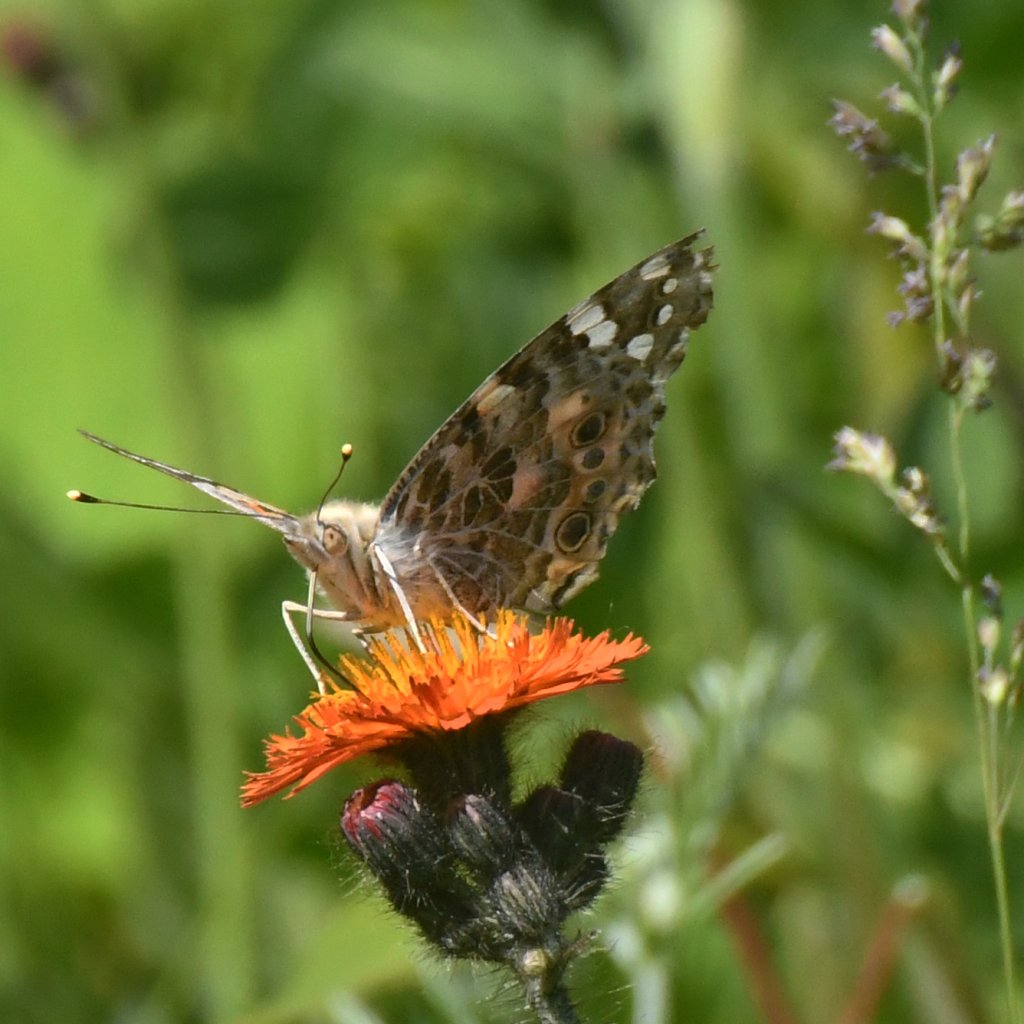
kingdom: Animalia
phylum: Arthropoda
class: Insecta
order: Lepidoptera
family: Nymphalidae
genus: Vanessa
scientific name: Vanessa cardui
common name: Painted Lady
